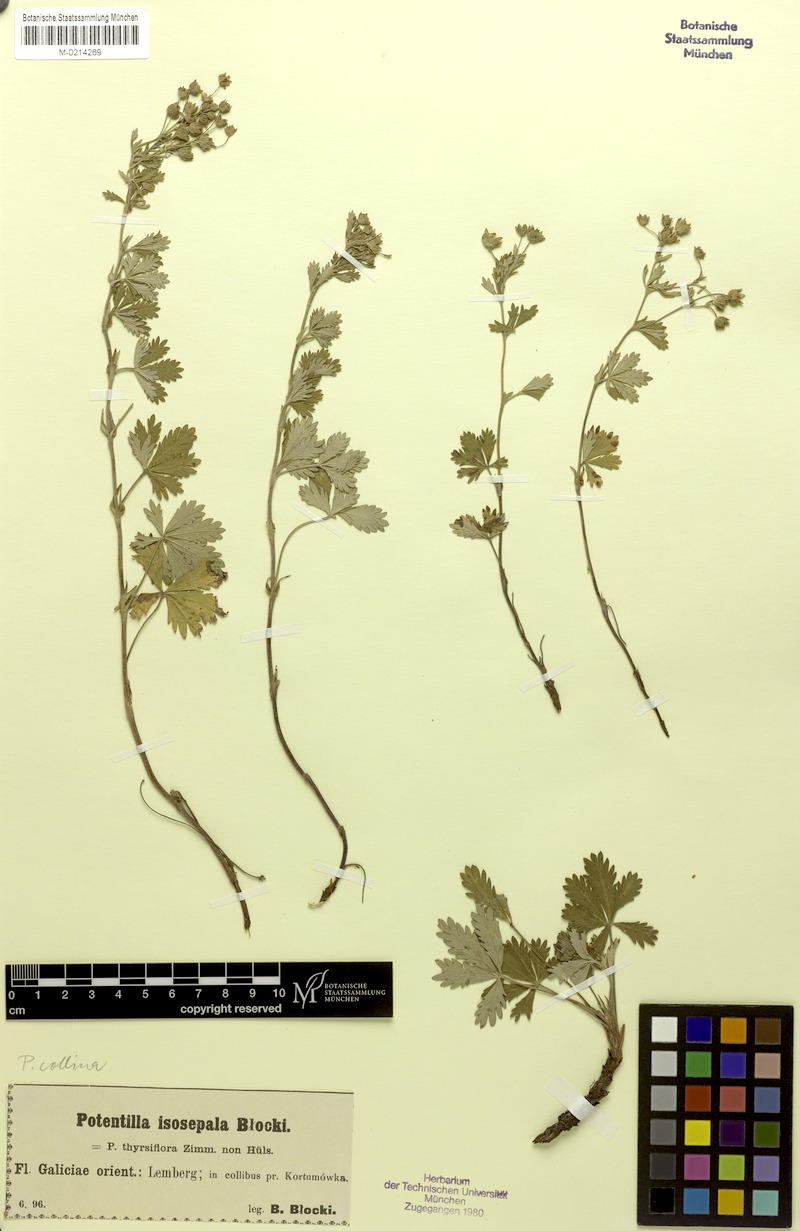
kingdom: Plantae
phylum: Tracheophyta
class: Magnoliopsida
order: Rosales
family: Rosaceae
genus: Potentilla
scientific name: Potentilla collina
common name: Palmleaf cinquefoil
